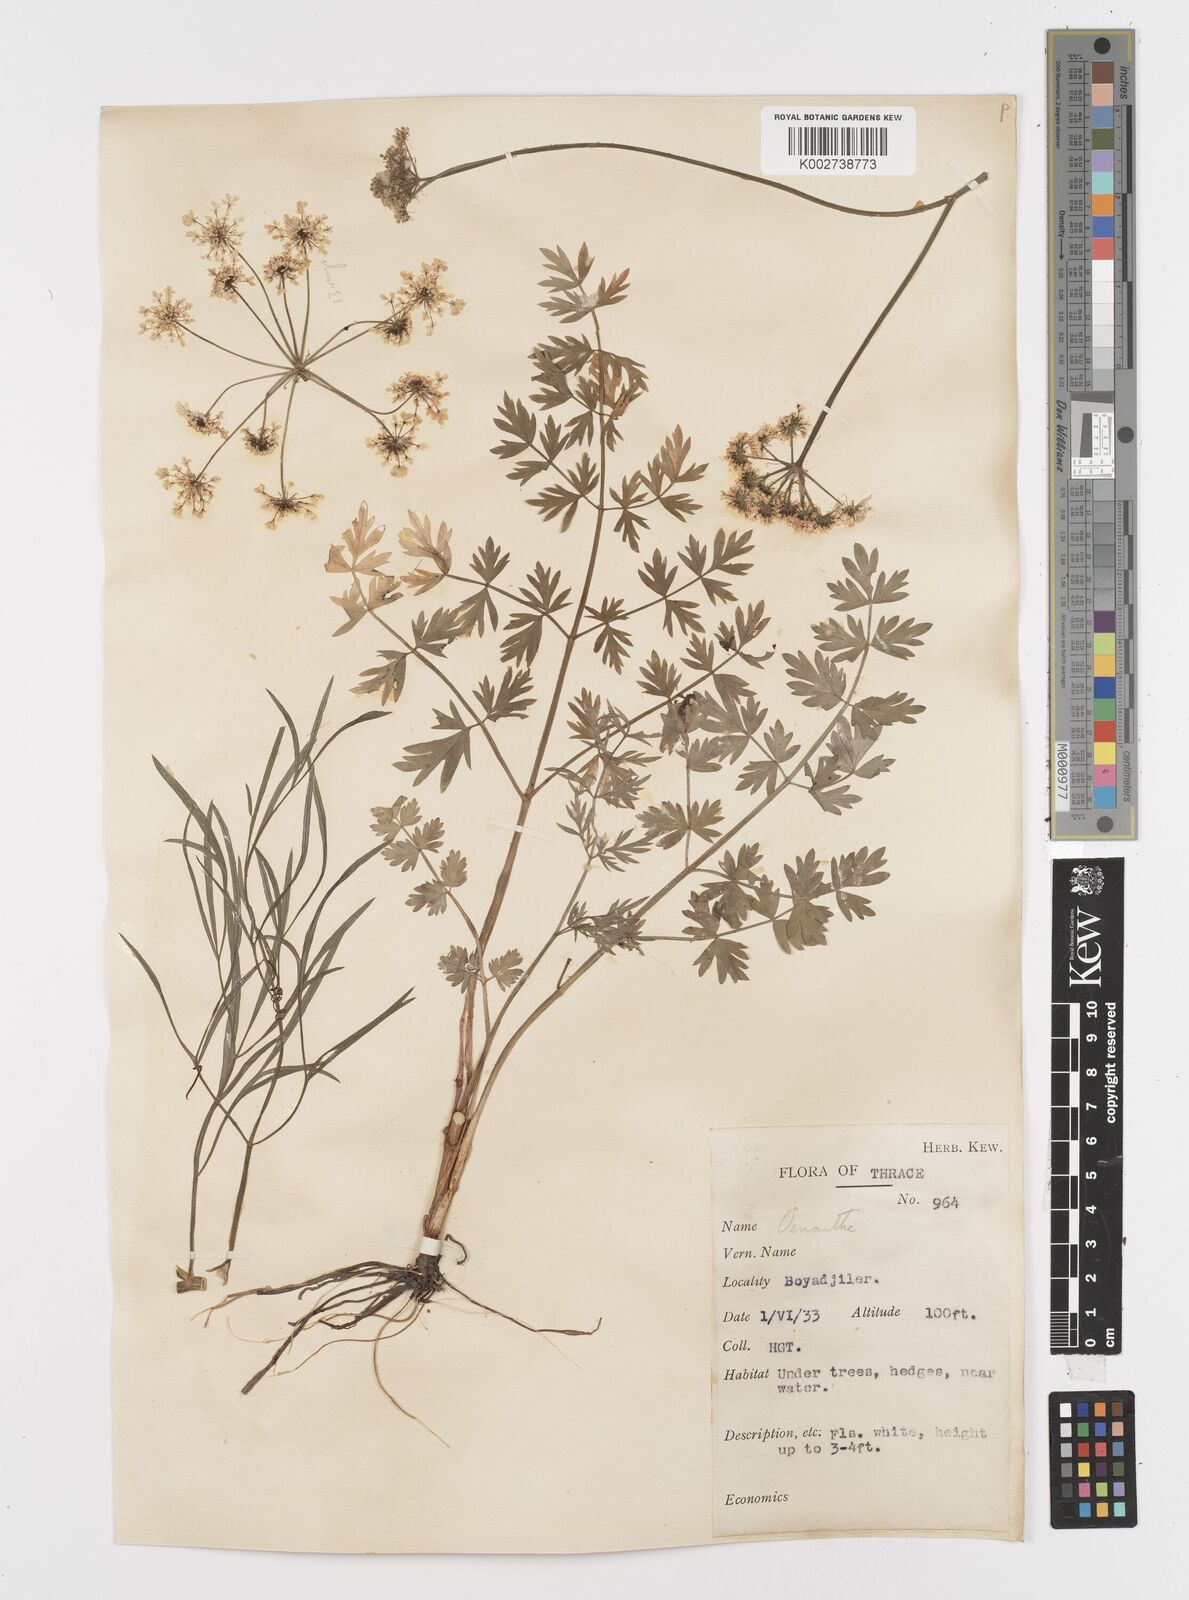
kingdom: Plantae
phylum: Tracheophyta
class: Magnoliopsida
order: Apiales
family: Apiaceae
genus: Oenanthe
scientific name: Oenanthe pimpinelloides
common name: Corky-fruited water-dropwort
